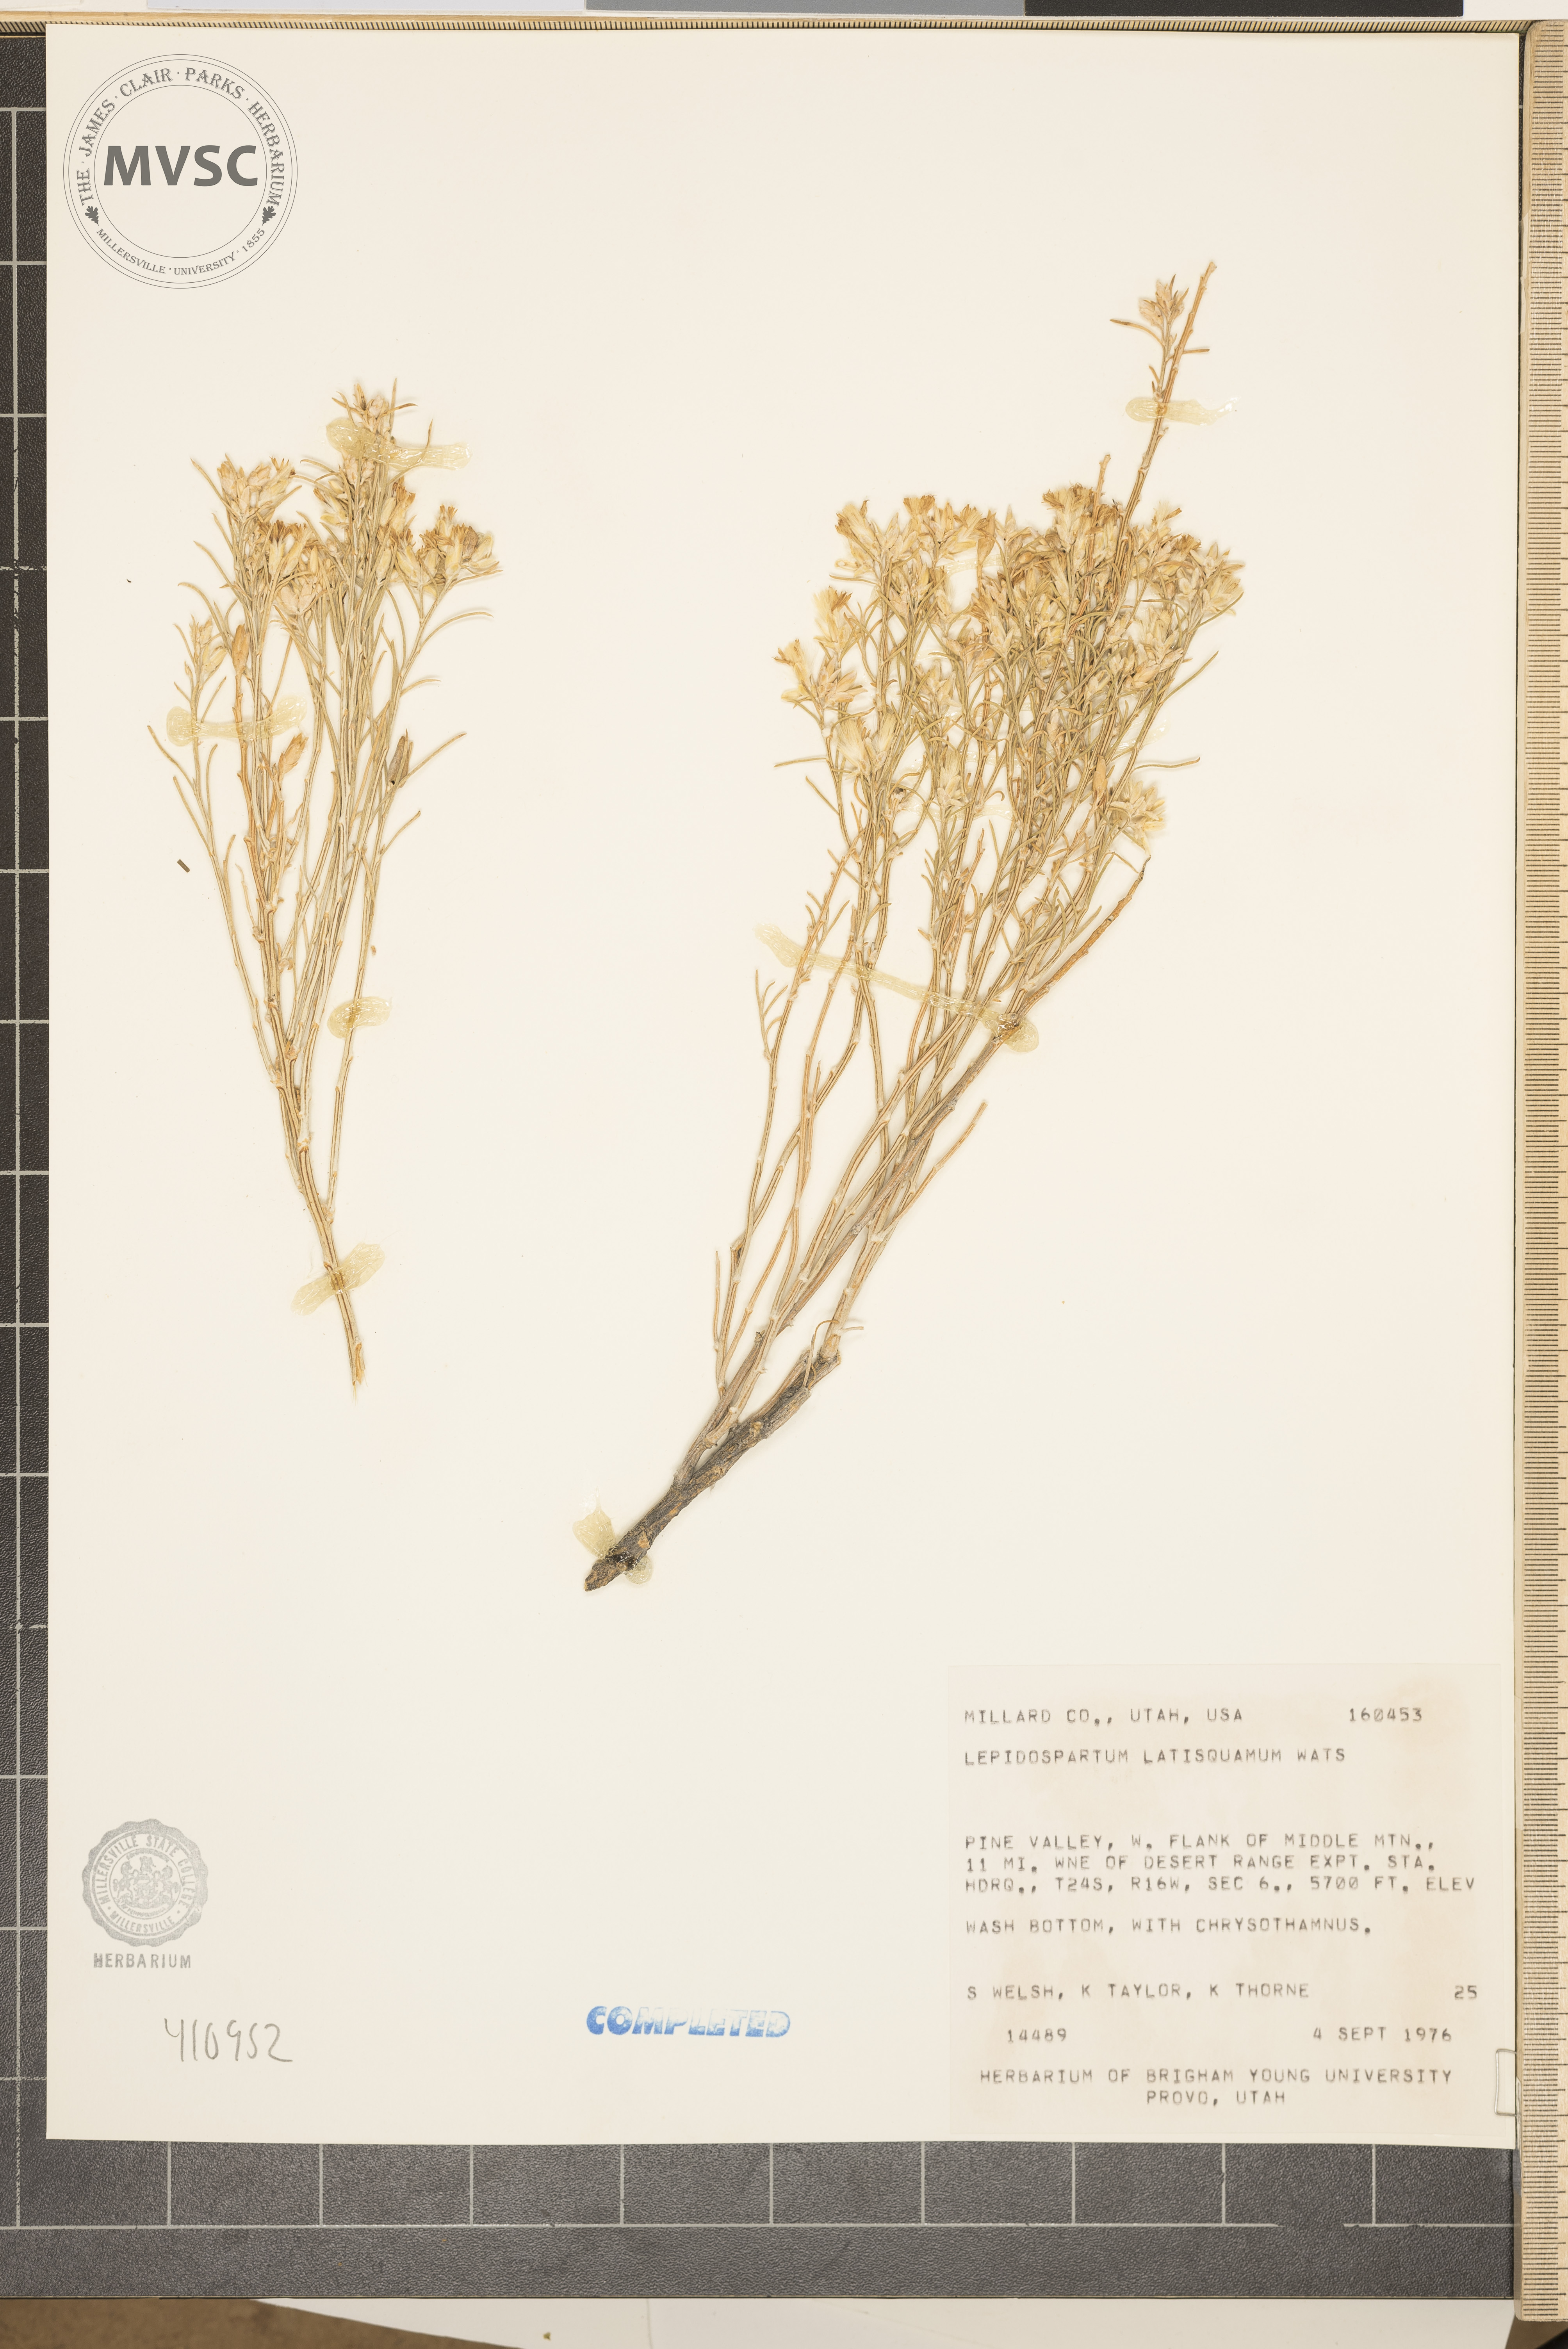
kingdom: Plantae
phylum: Tracheophyta
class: Magnoliopsida
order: Asterales
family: Asteraceae
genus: Lepidospartum
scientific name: Lepidospartum latisquamum
